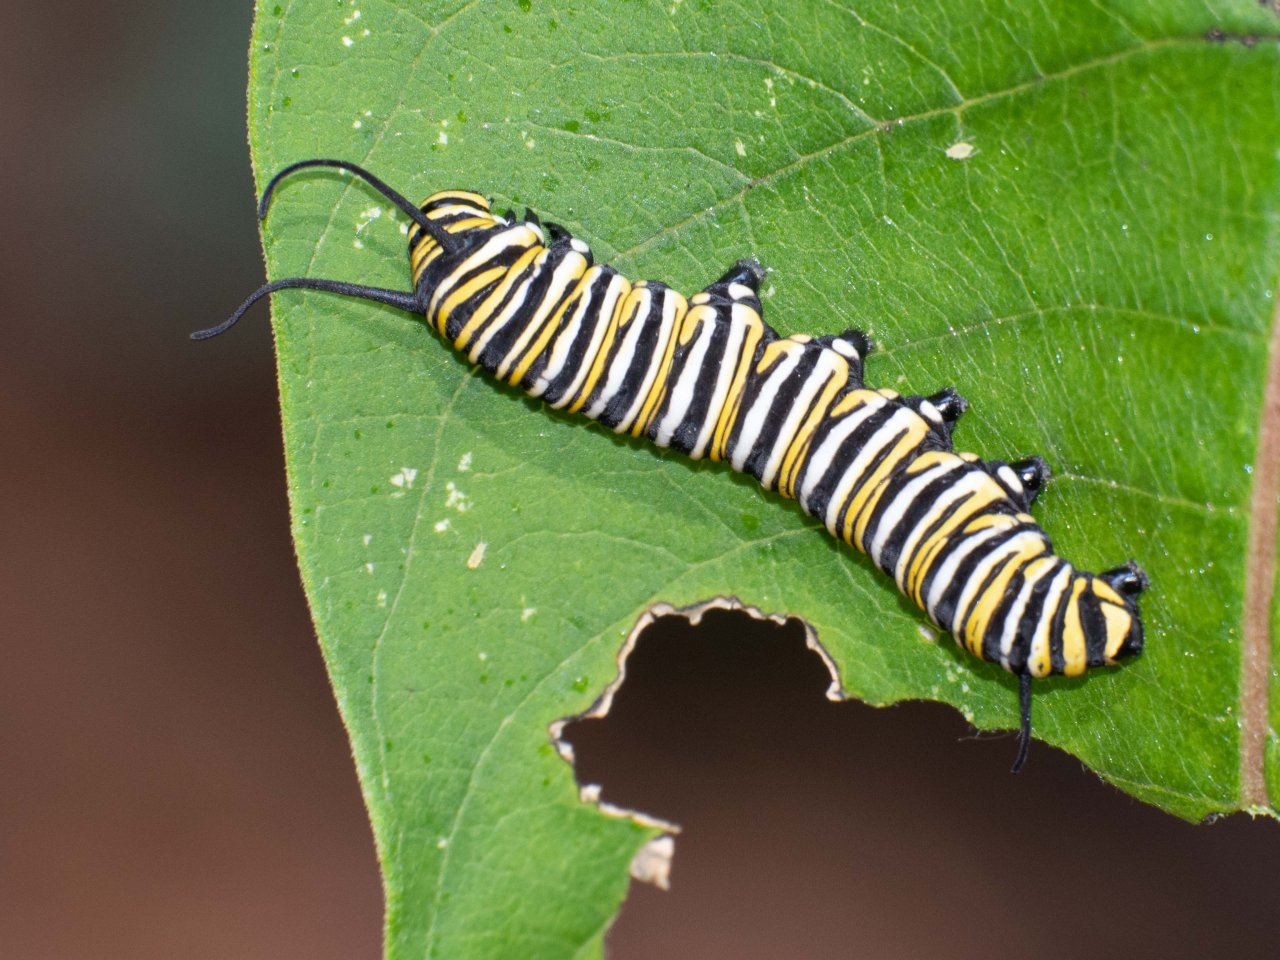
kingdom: Animalia
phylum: Arthropoda
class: Insecta
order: Lepidoptera
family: Nymphalidae
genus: Danaus
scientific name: Danaus plexippus
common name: Monarch
